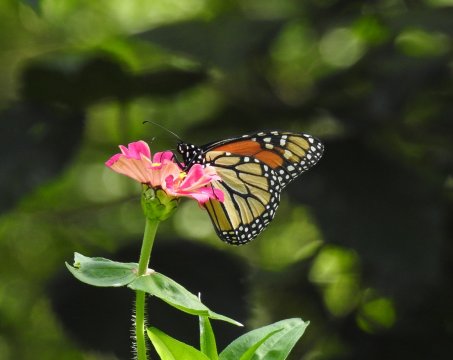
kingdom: Animalia
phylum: Arthropoda
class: Insecta
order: Lepidoptera
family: Nymphalidae
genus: Danaus
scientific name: Danaus plexippus
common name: Monarch
